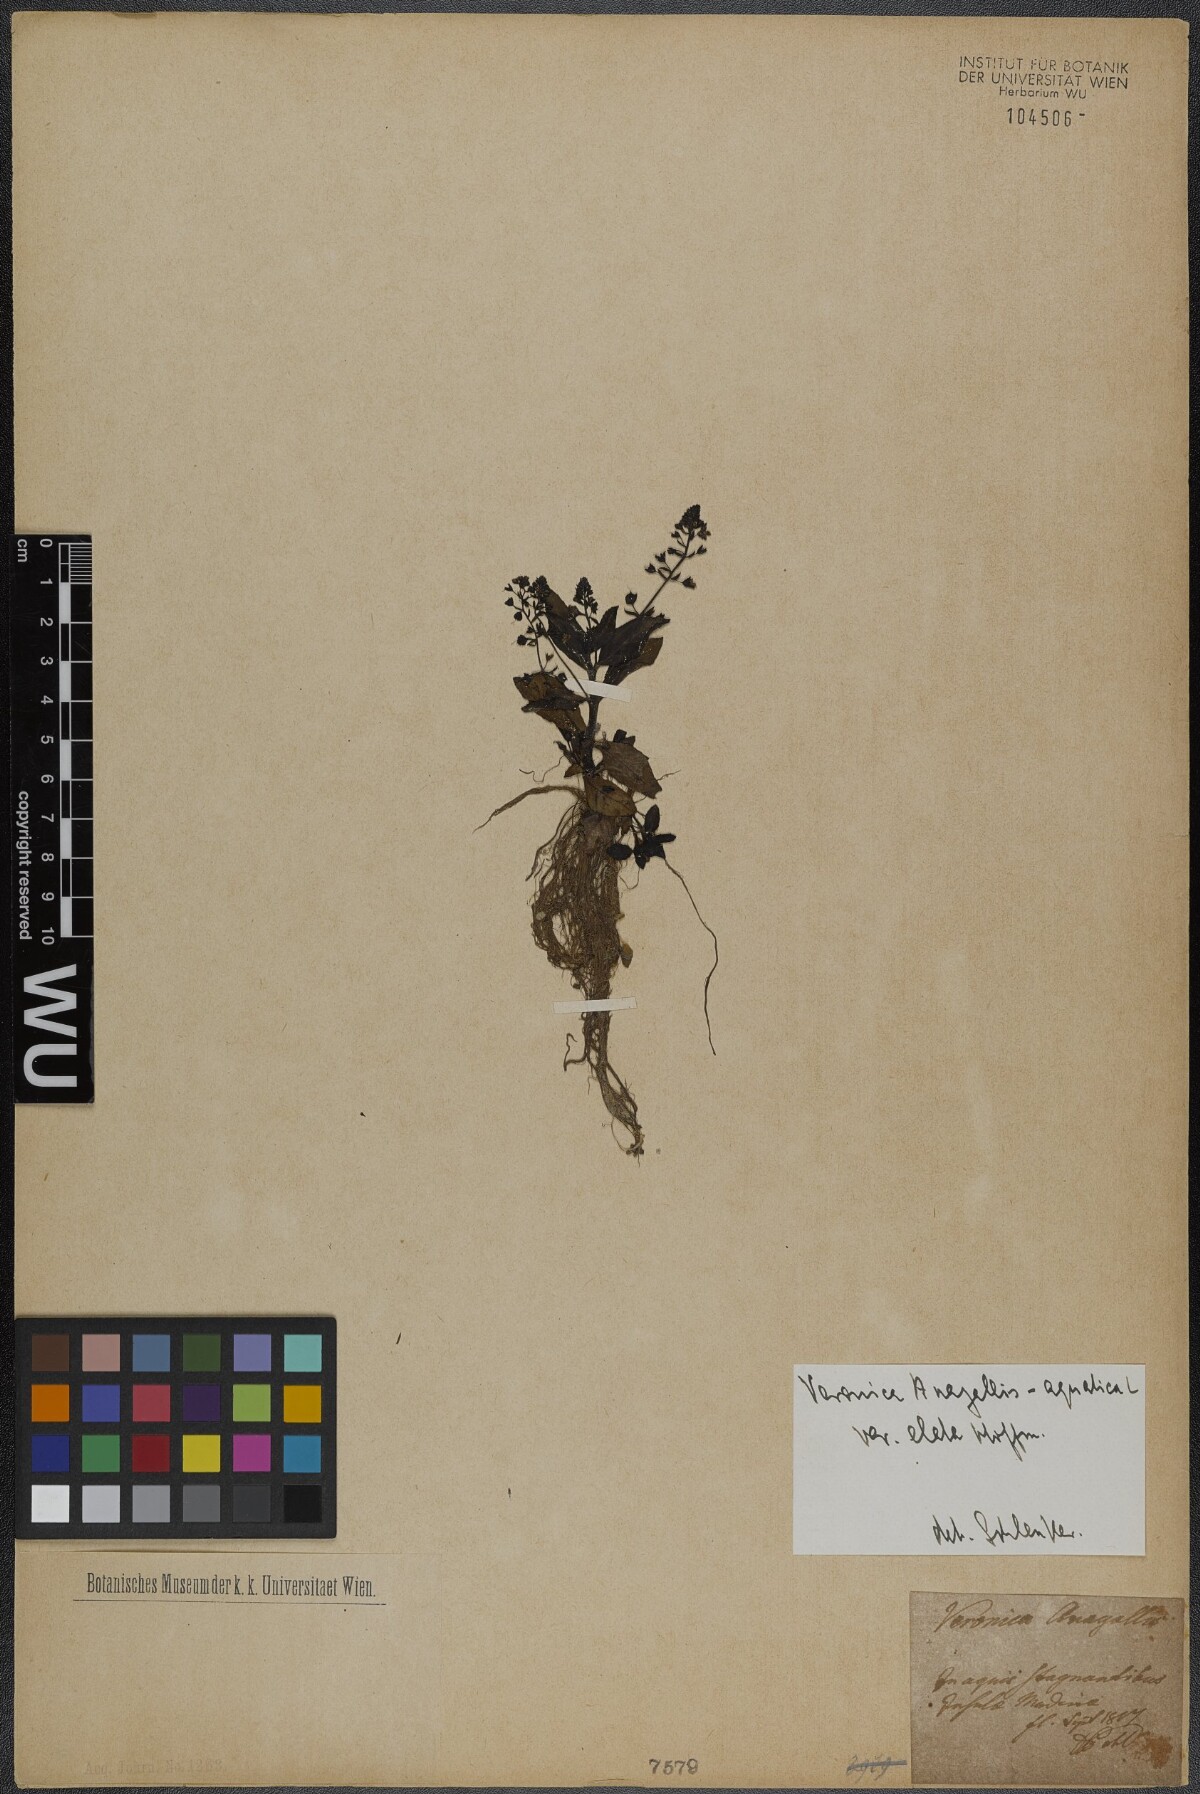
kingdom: Plantae
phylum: Tracheophyta
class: Magnoliopsida
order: Lamiales
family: Plantaginaceae
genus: Veronica
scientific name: Veronica anagallis-aquatica
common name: Water speedwell
